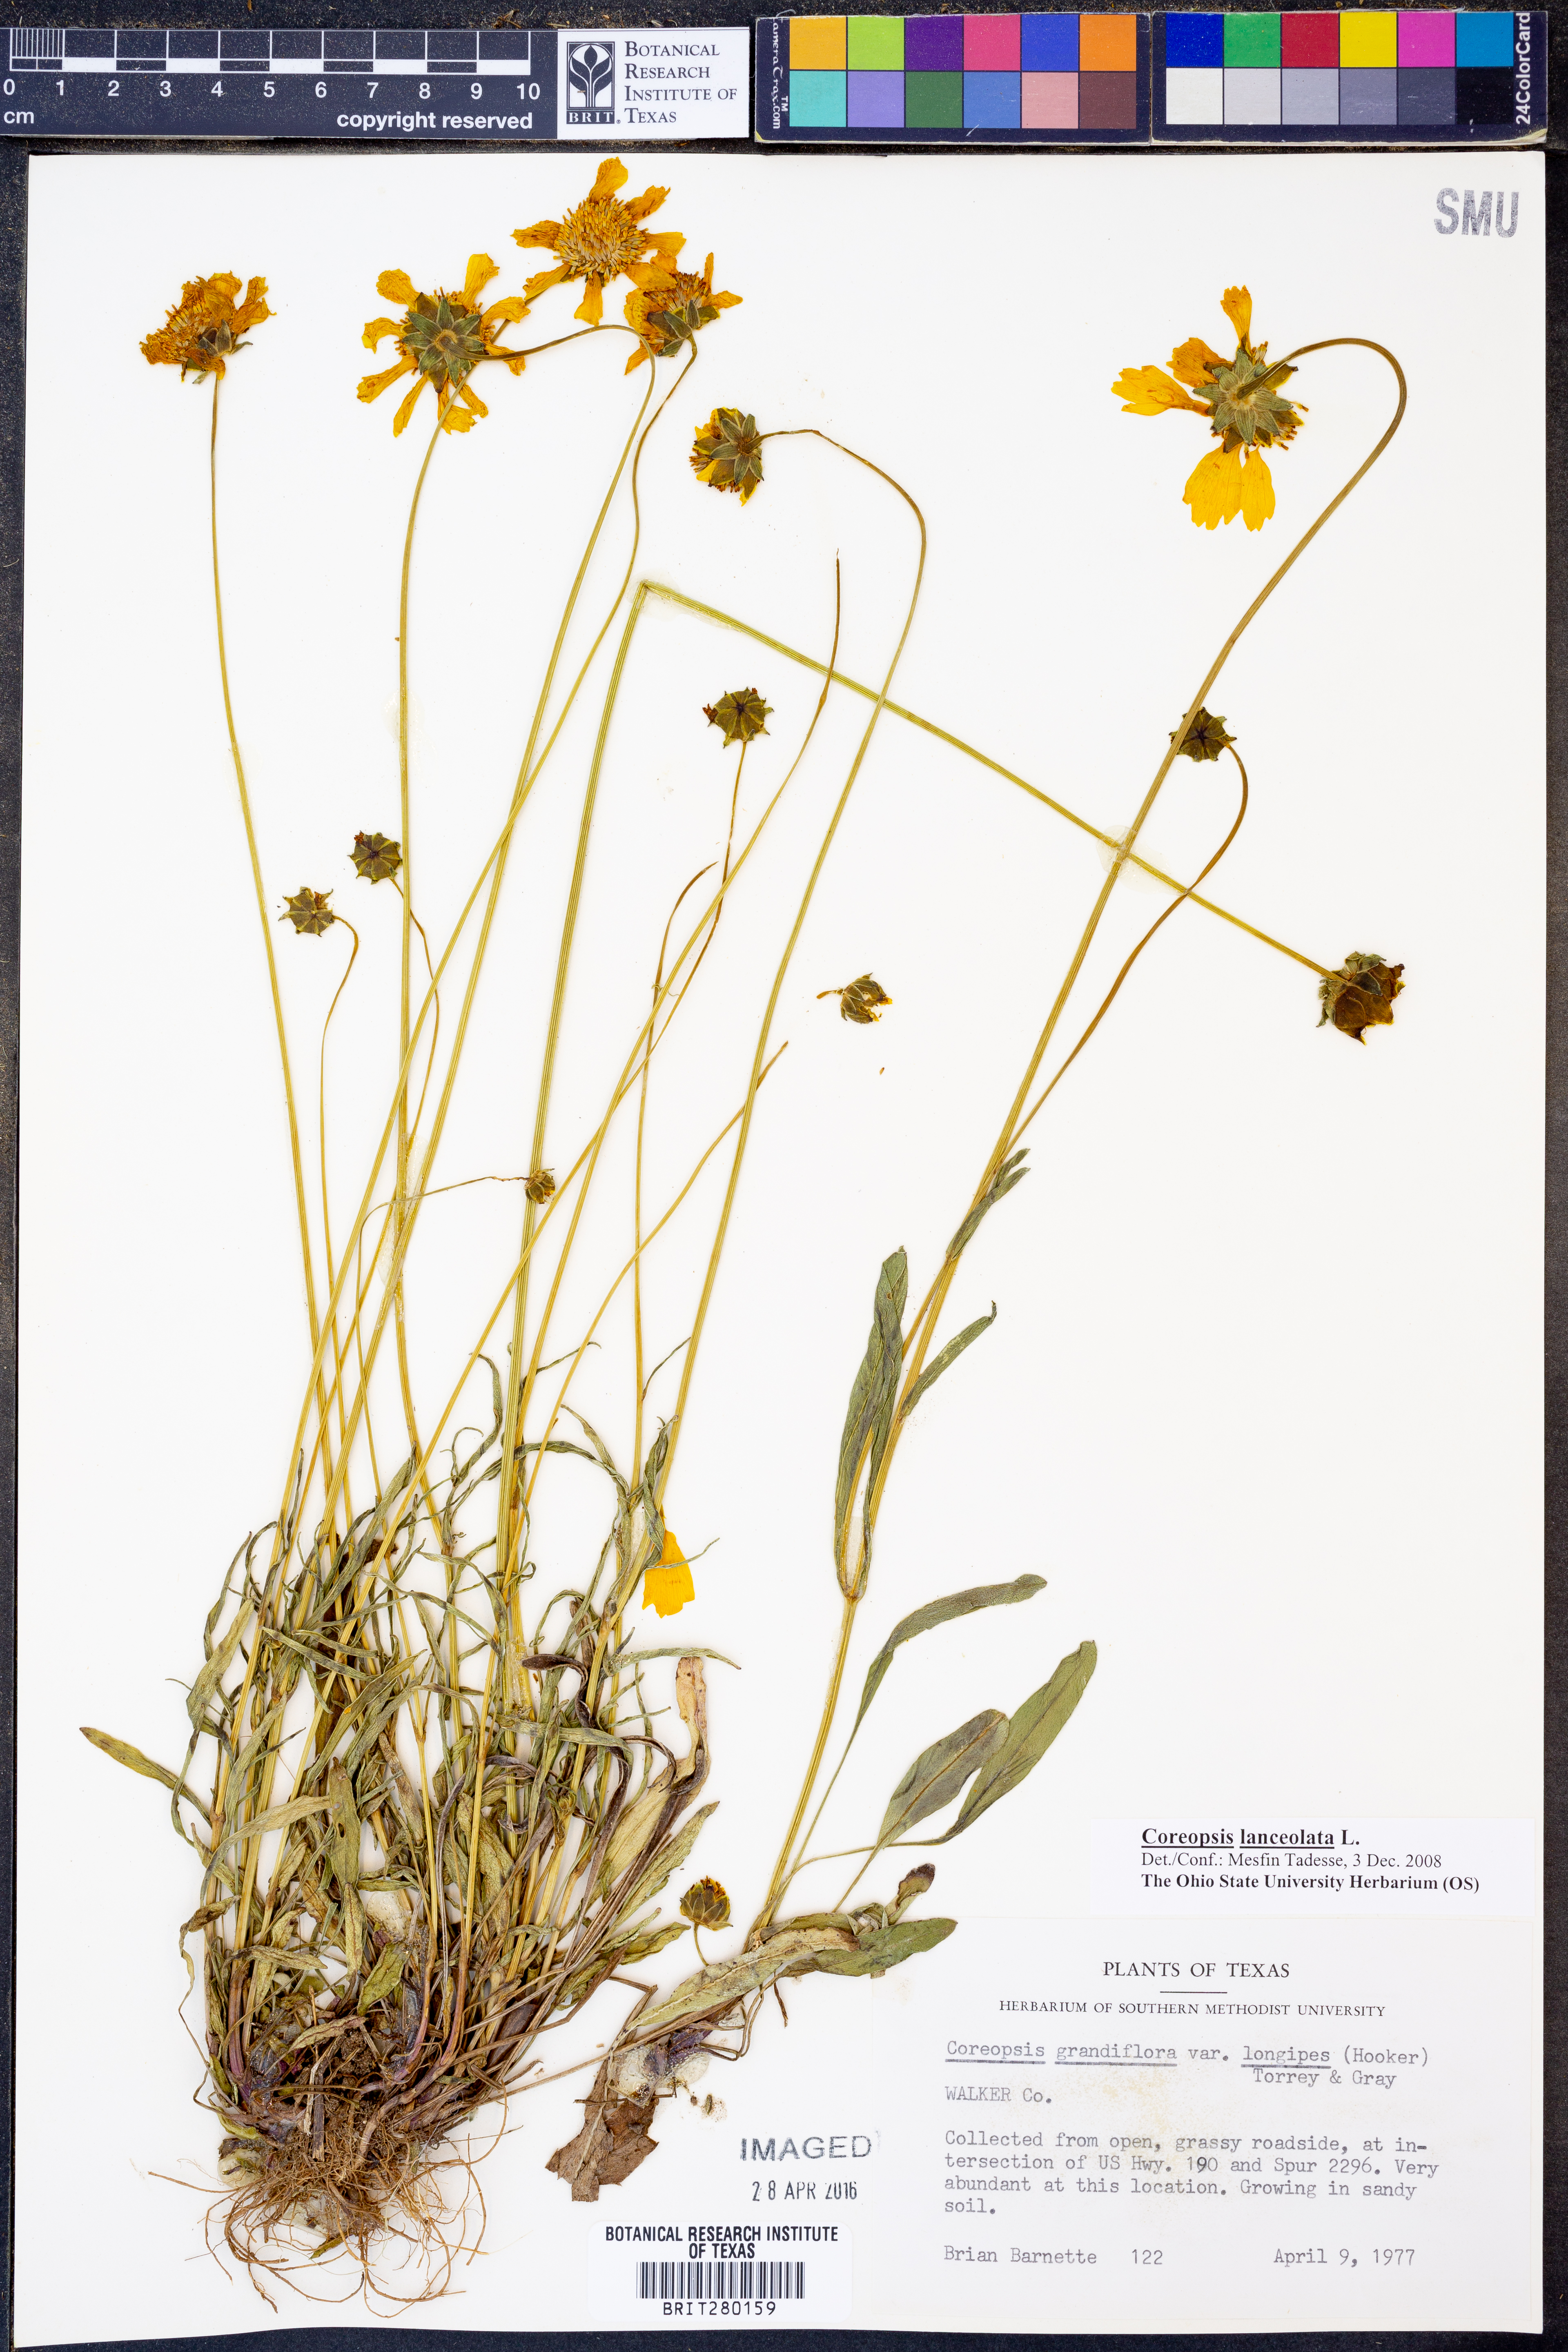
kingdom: Plantae
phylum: Tracheophyta
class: Magnoliopsida
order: Asterales
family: Asteraceae
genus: Coreopsis
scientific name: Coreopsis lanceolata
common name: Garden coreopsis
